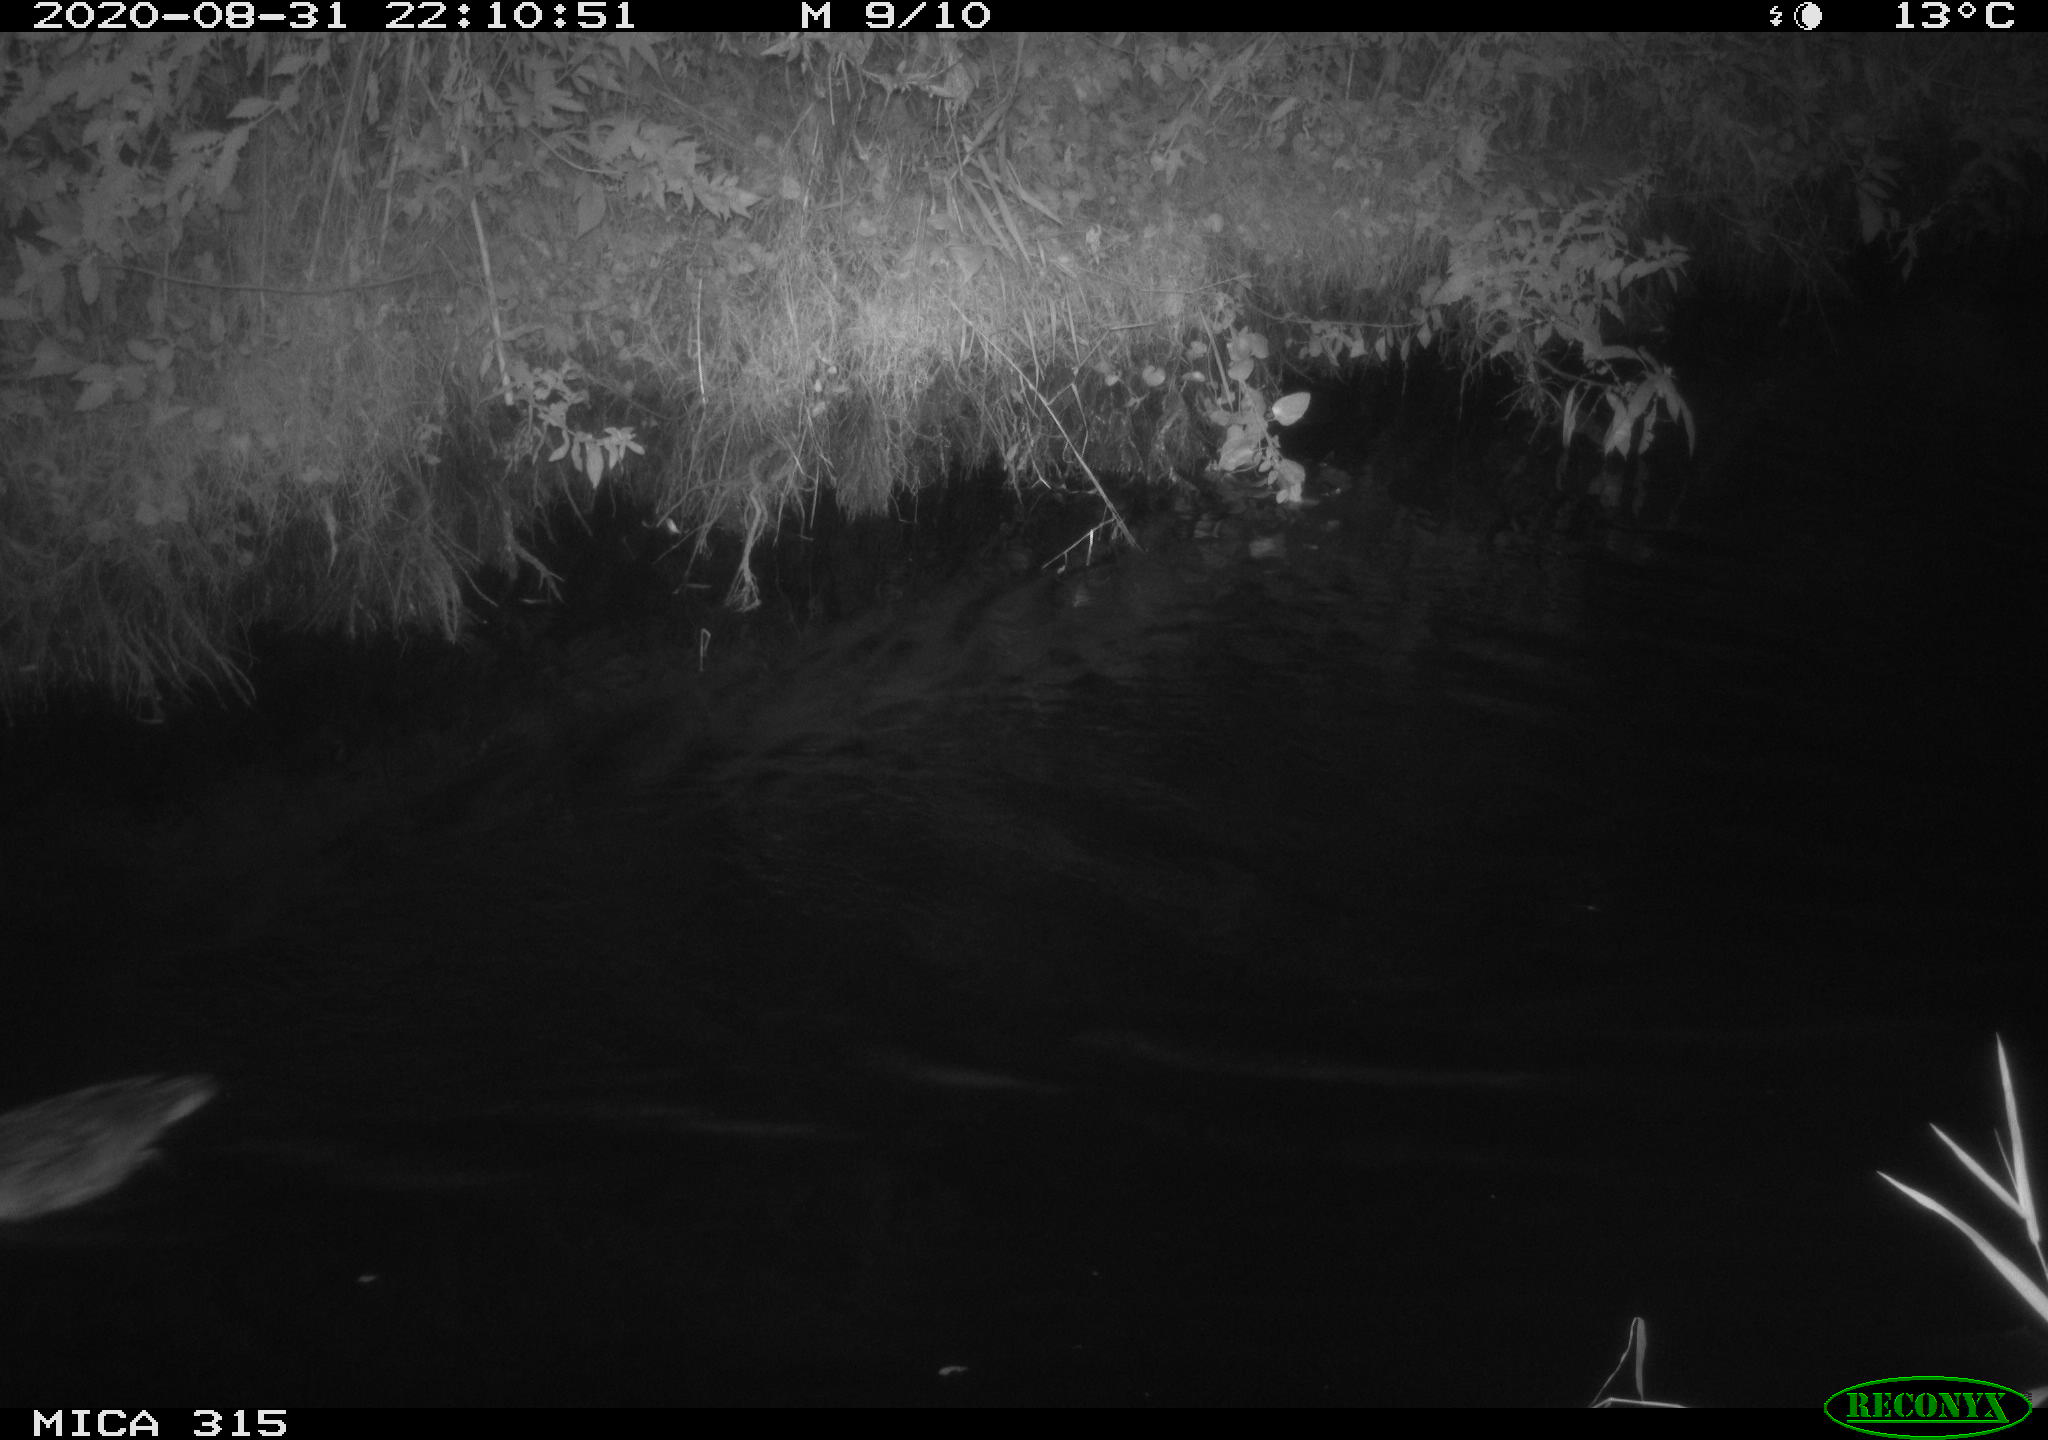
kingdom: Animalia
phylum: Chordata
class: Aves
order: Anseriformes
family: Anatidae
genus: Anas
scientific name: Anas platyrhynchos
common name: Mallard
